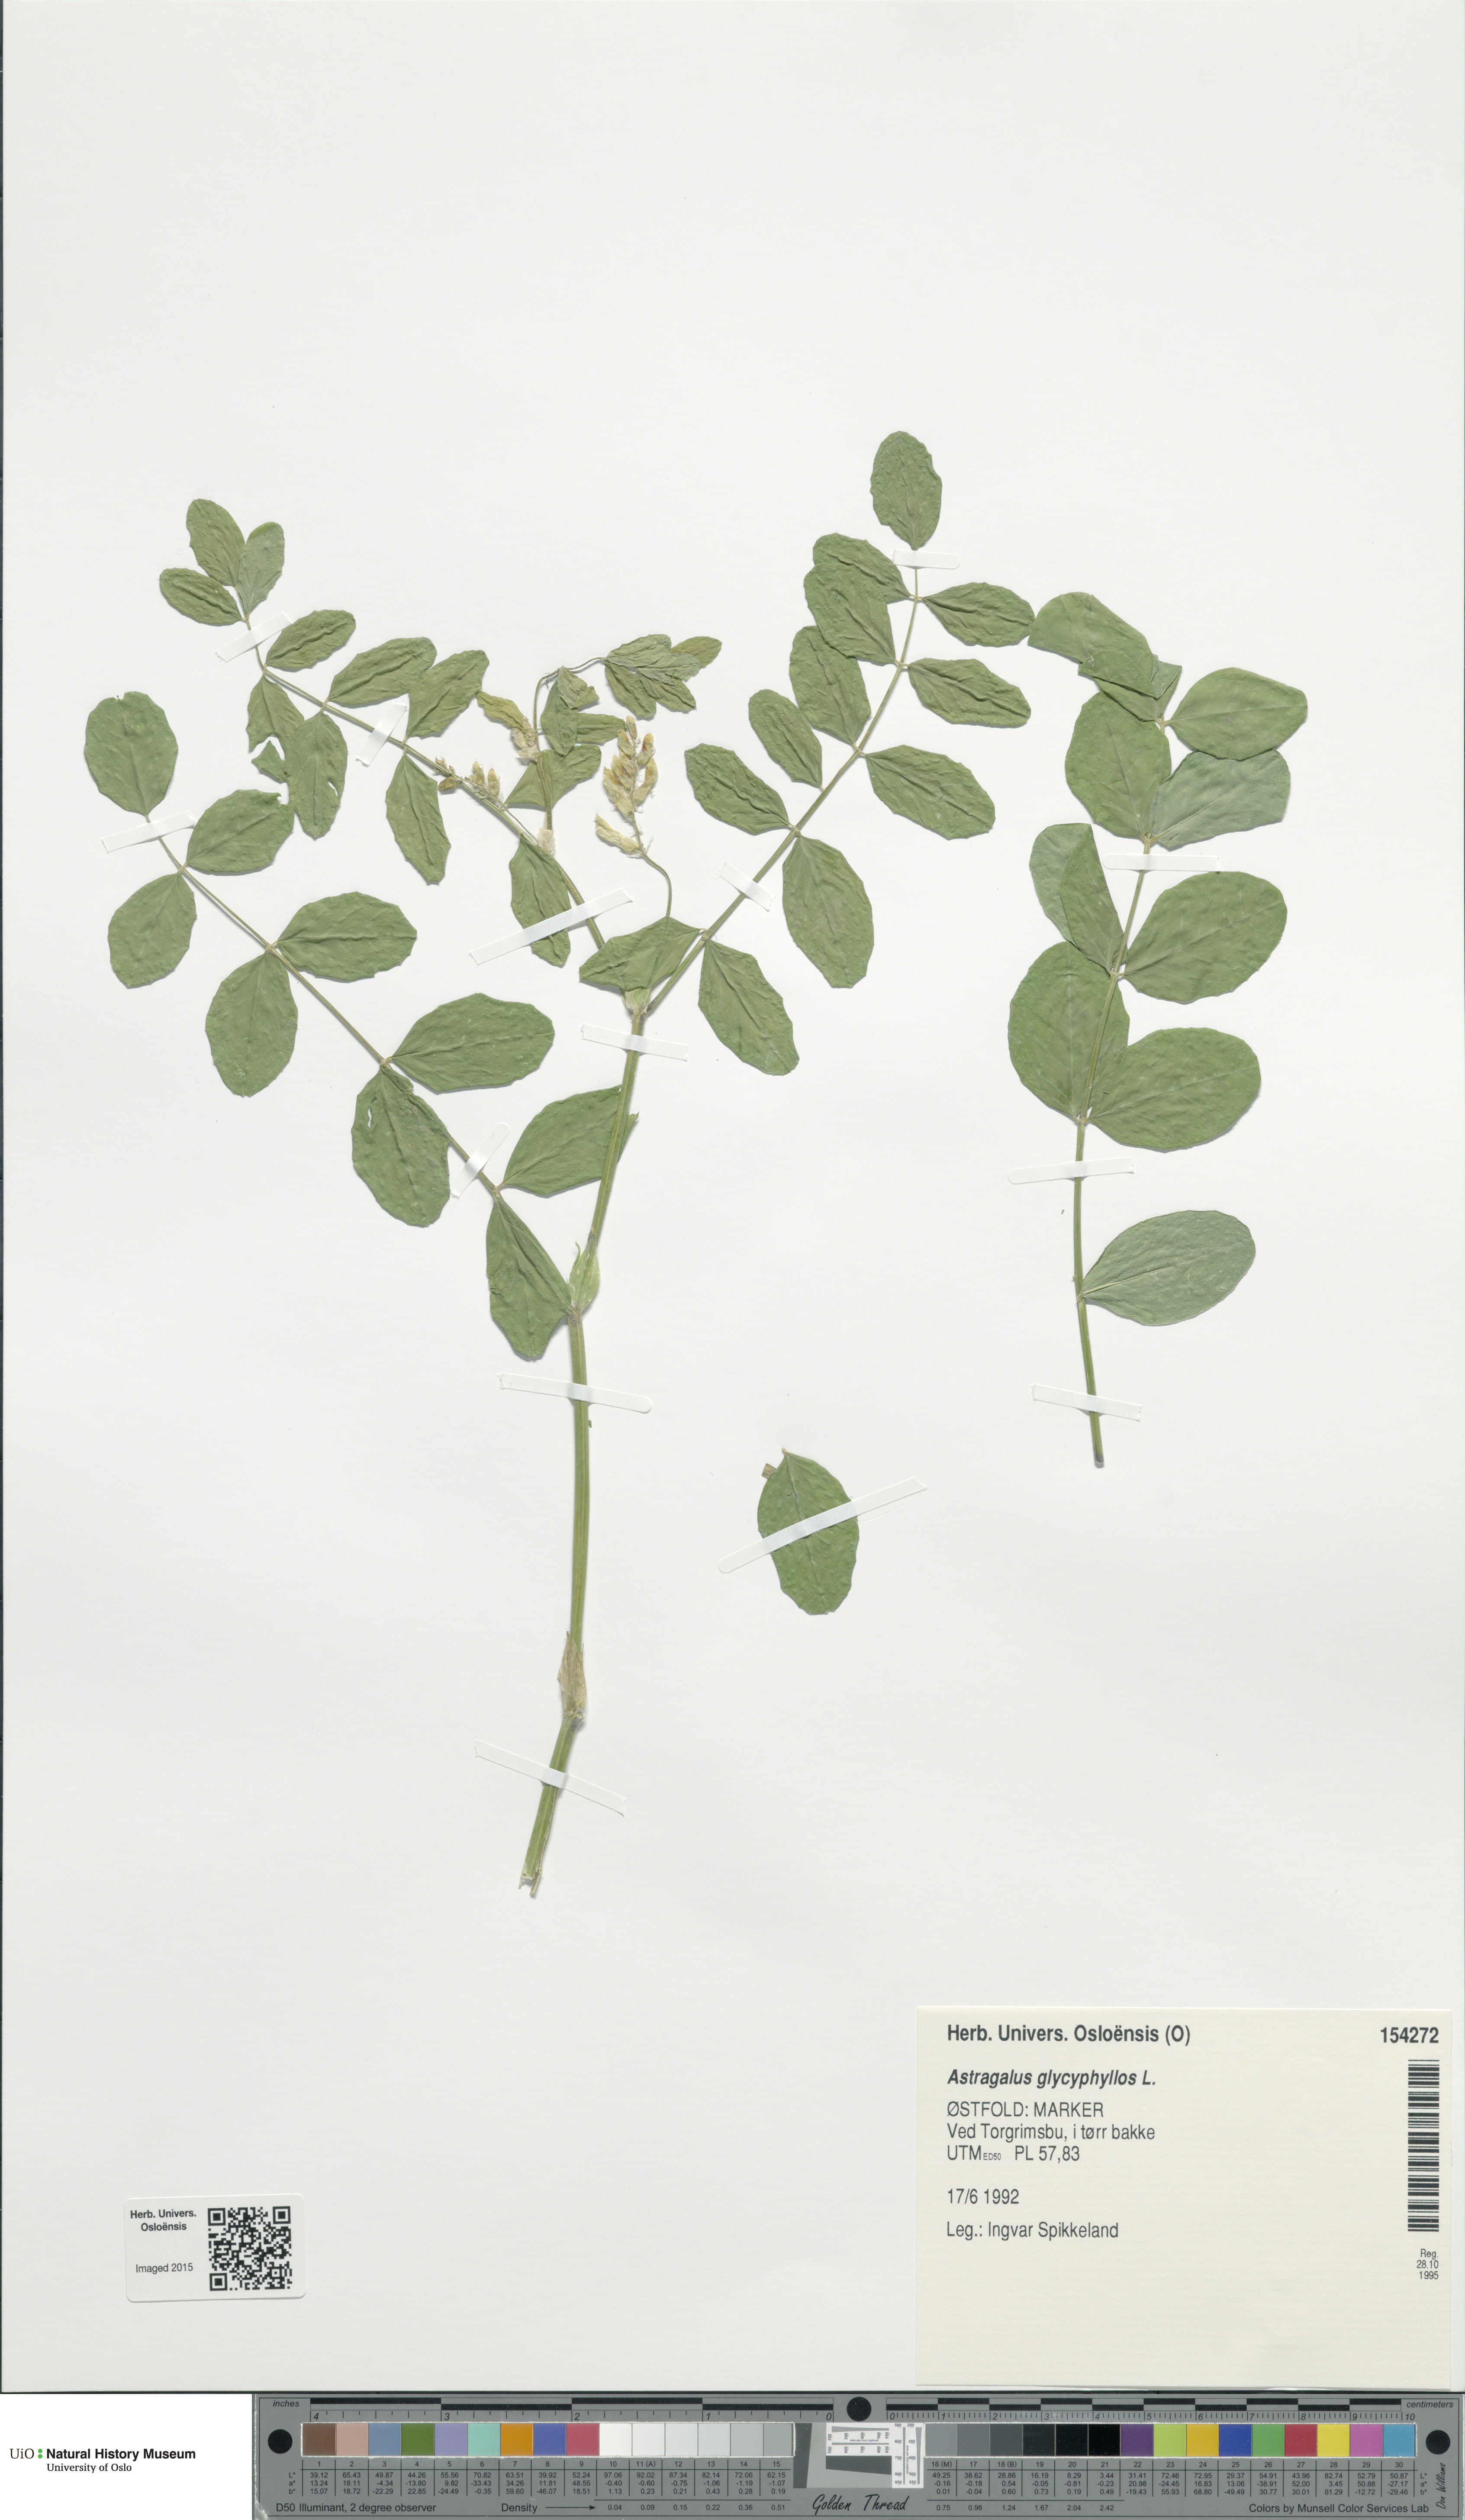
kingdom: Plantae
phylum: Tracheophyta
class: Magnoliopsida
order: Fabales
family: Fabaceae
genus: Astragalus
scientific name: Astragalus glycyphyllos
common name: Wild liquorice
